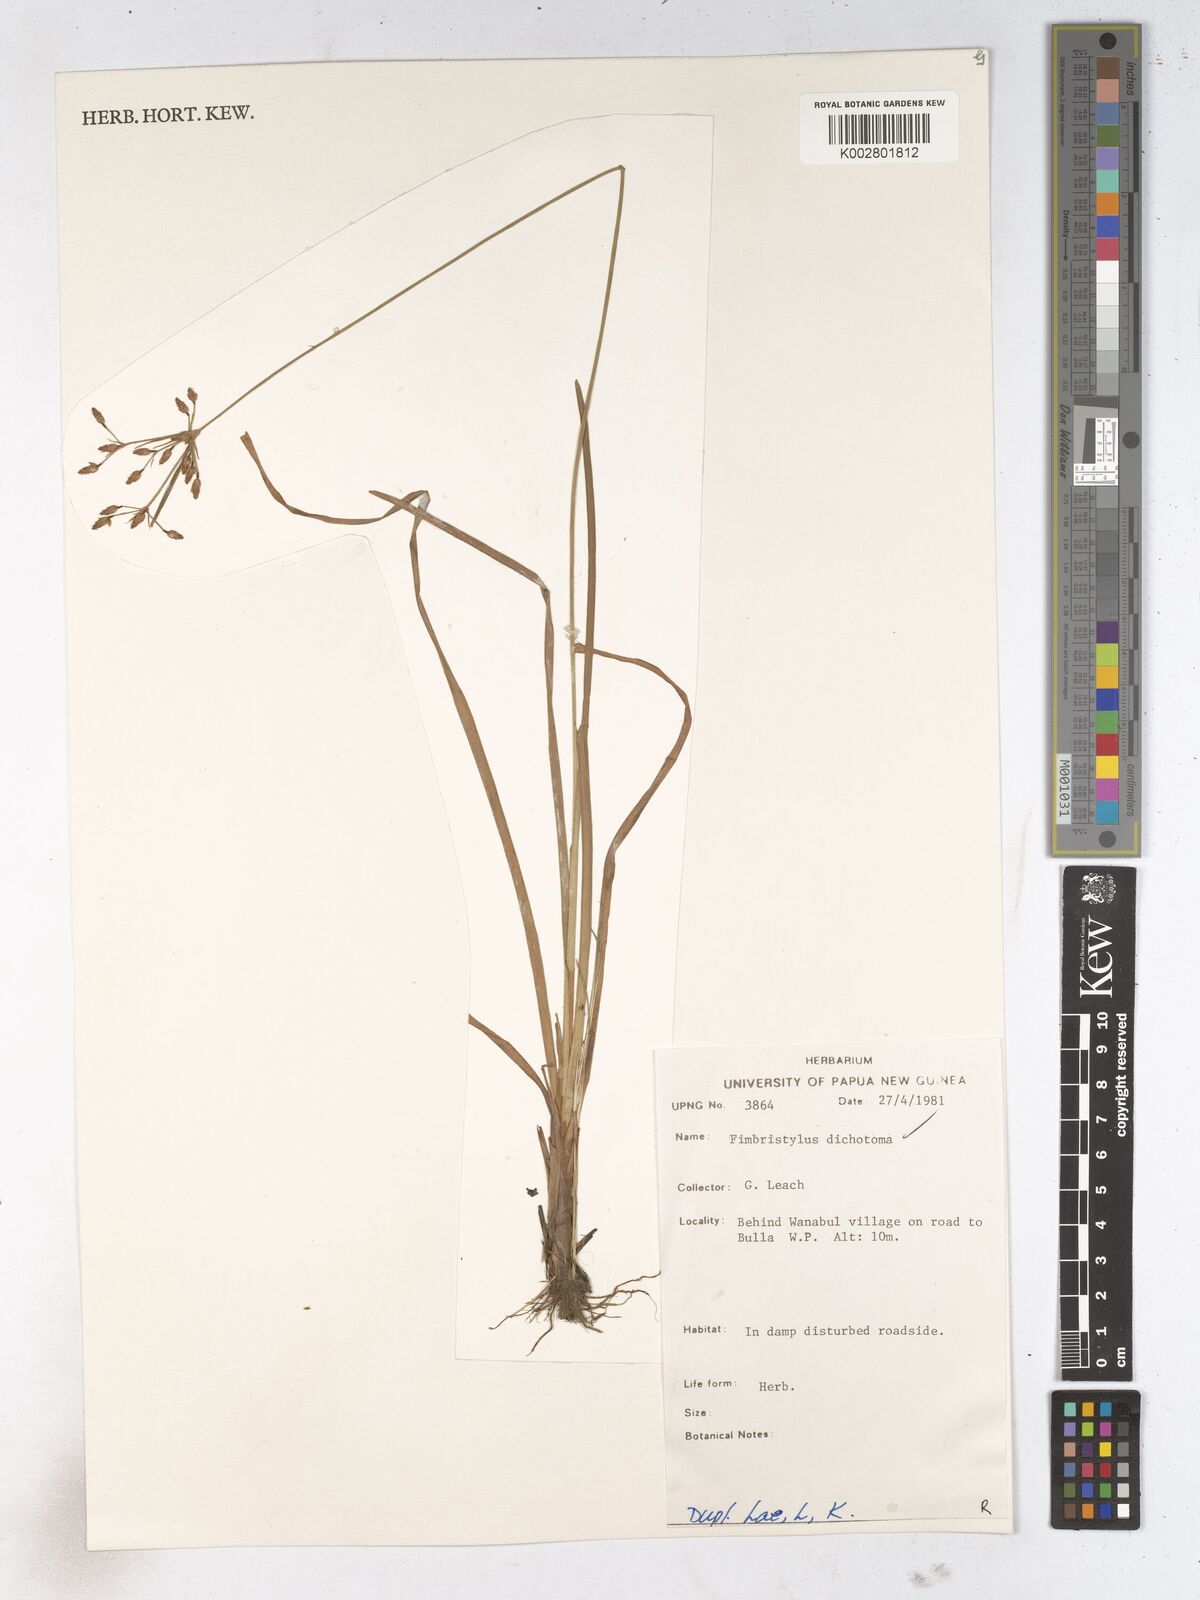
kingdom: Plantae
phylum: Tracheophyta
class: Liliopsida
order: Poales
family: Cyperaceae
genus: Fimbristylis
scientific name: Fimbristylis dichotoma
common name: Forked fimbry
